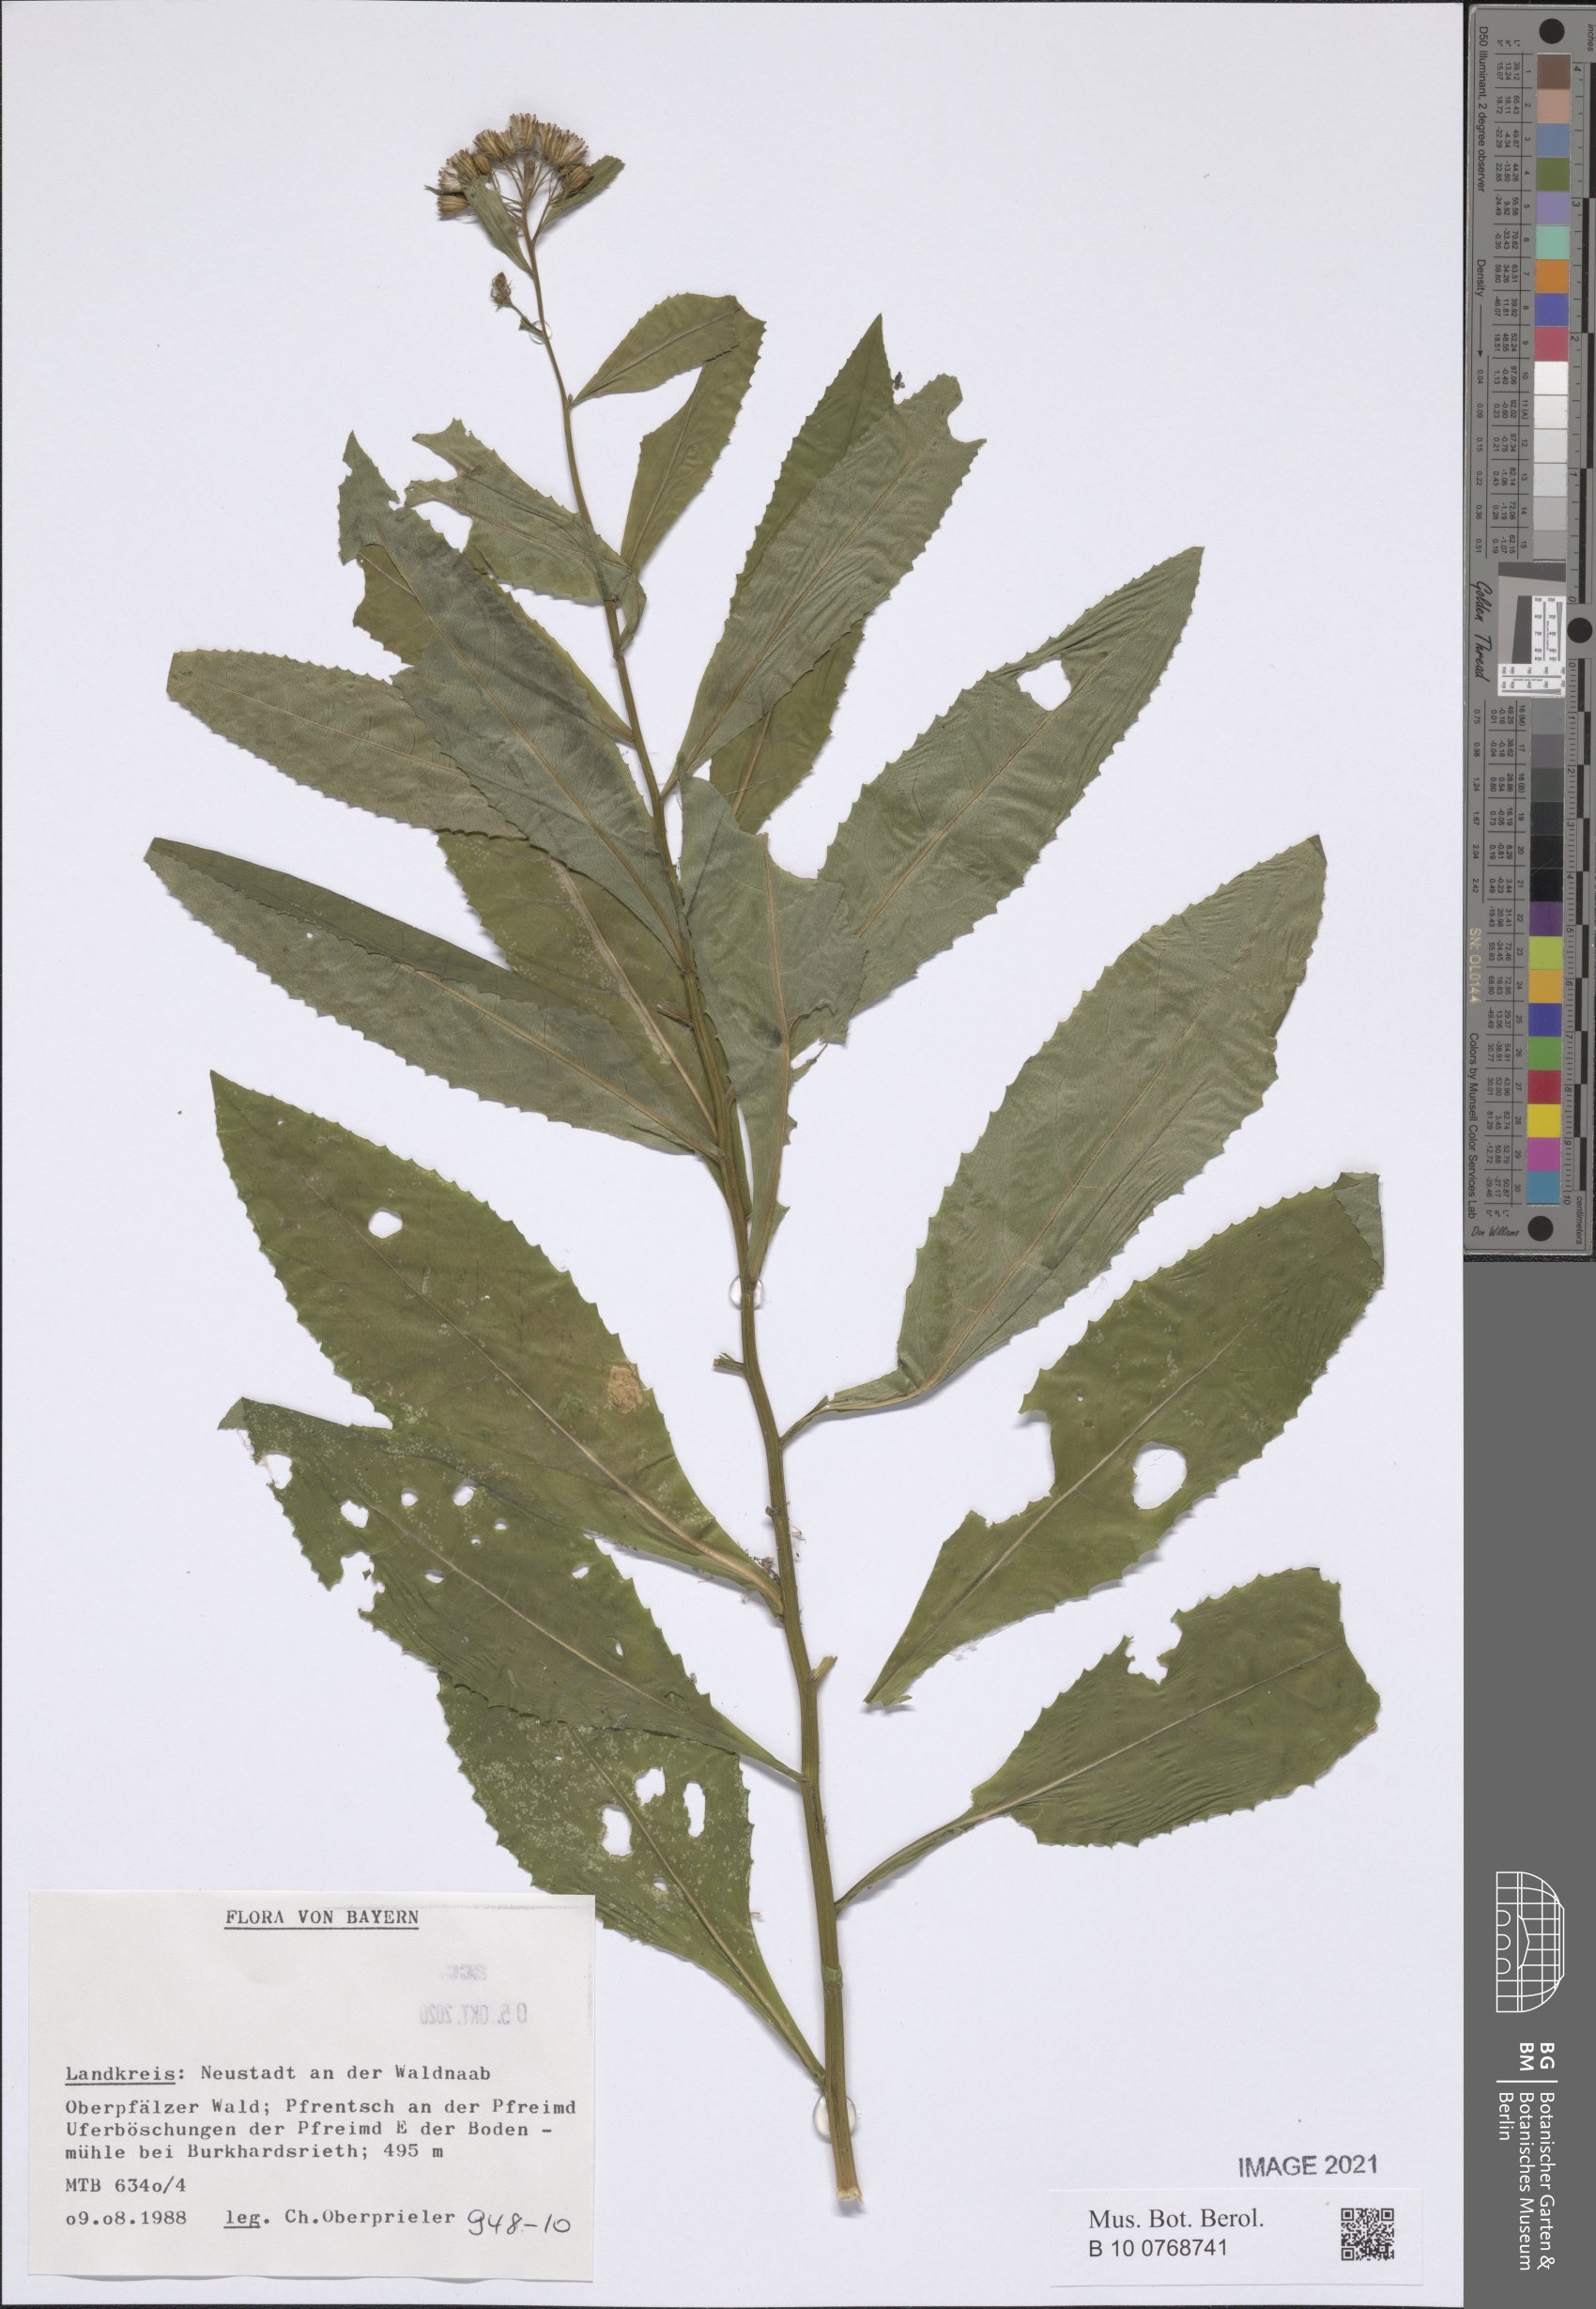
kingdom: Plantae
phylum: Tracheophyta
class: Magnoliopsida
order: Asterales
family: Asteraceae
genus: Senecio
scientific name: Senecio
